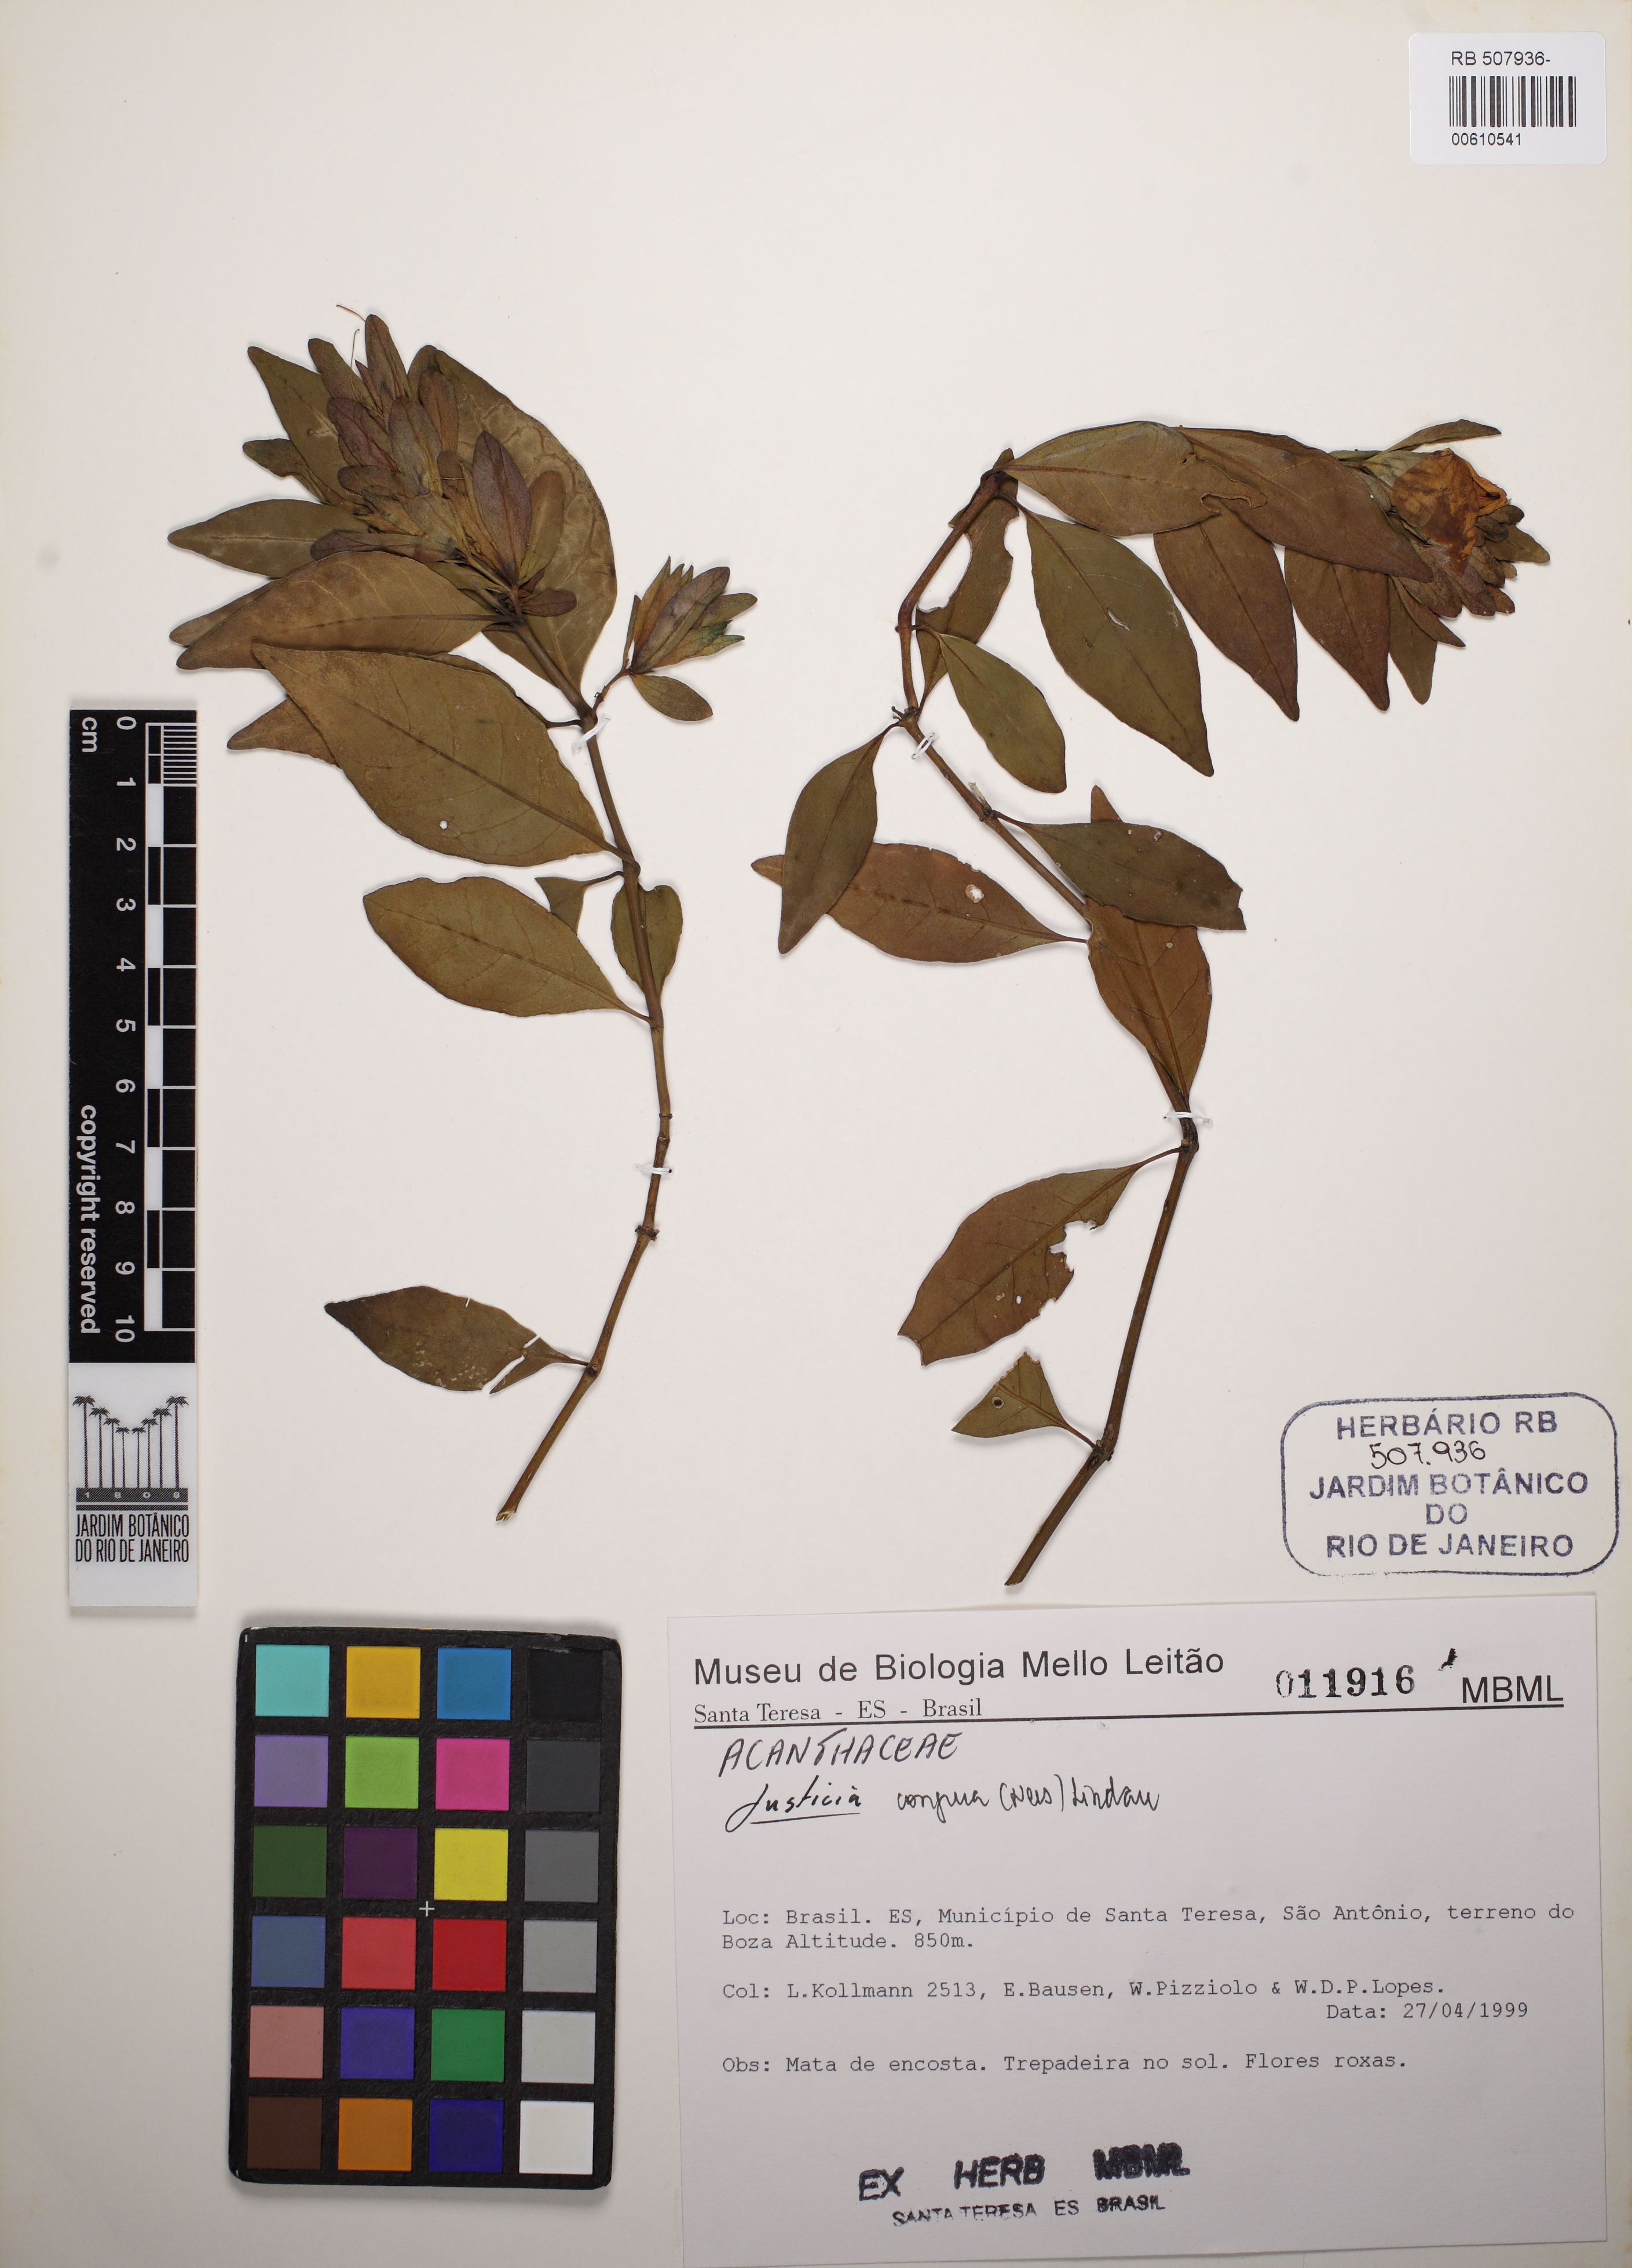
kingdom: Plantae
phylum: Tracheophyta
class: Magnoliopsida
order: Lamiales
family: Acanthaceae
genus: Justicia
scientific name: Justicia congrua
